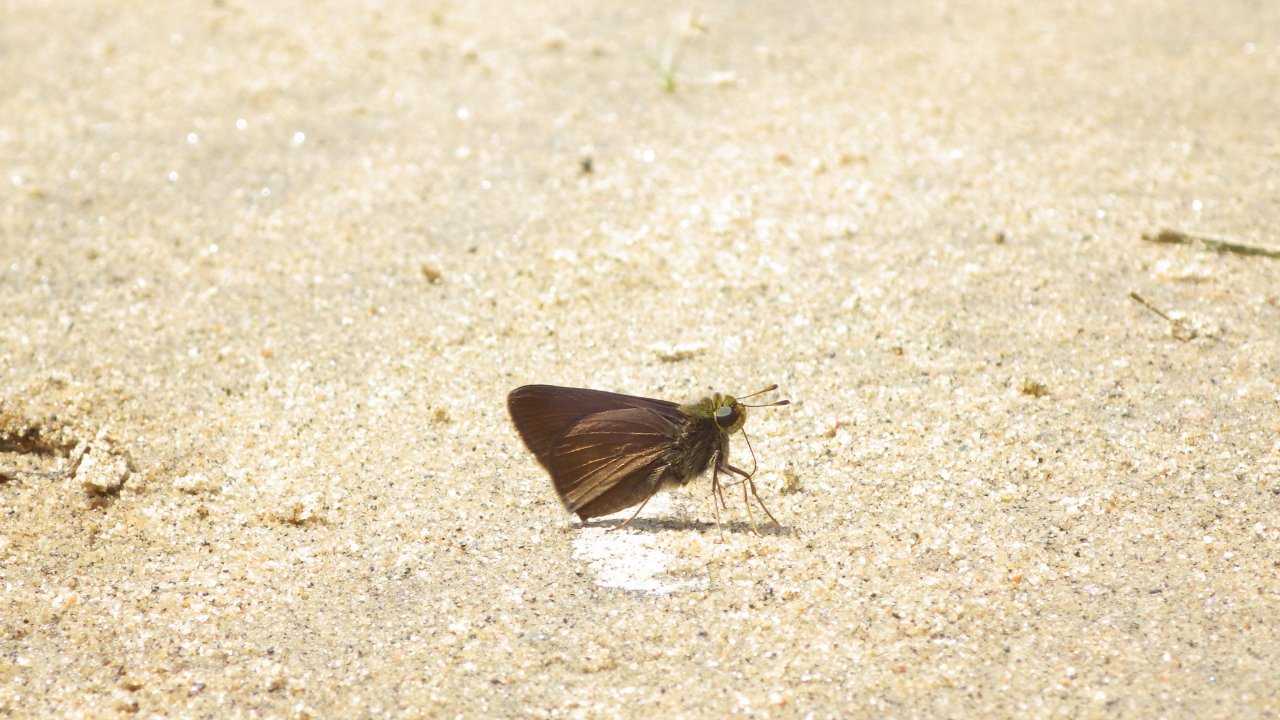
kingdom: Animalia
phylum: Arthropoda
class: Insecta
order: Lepidoptera
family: Hesperiidae
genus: Euphyes
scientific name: Euphyes vestris
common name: Dun Skipper
